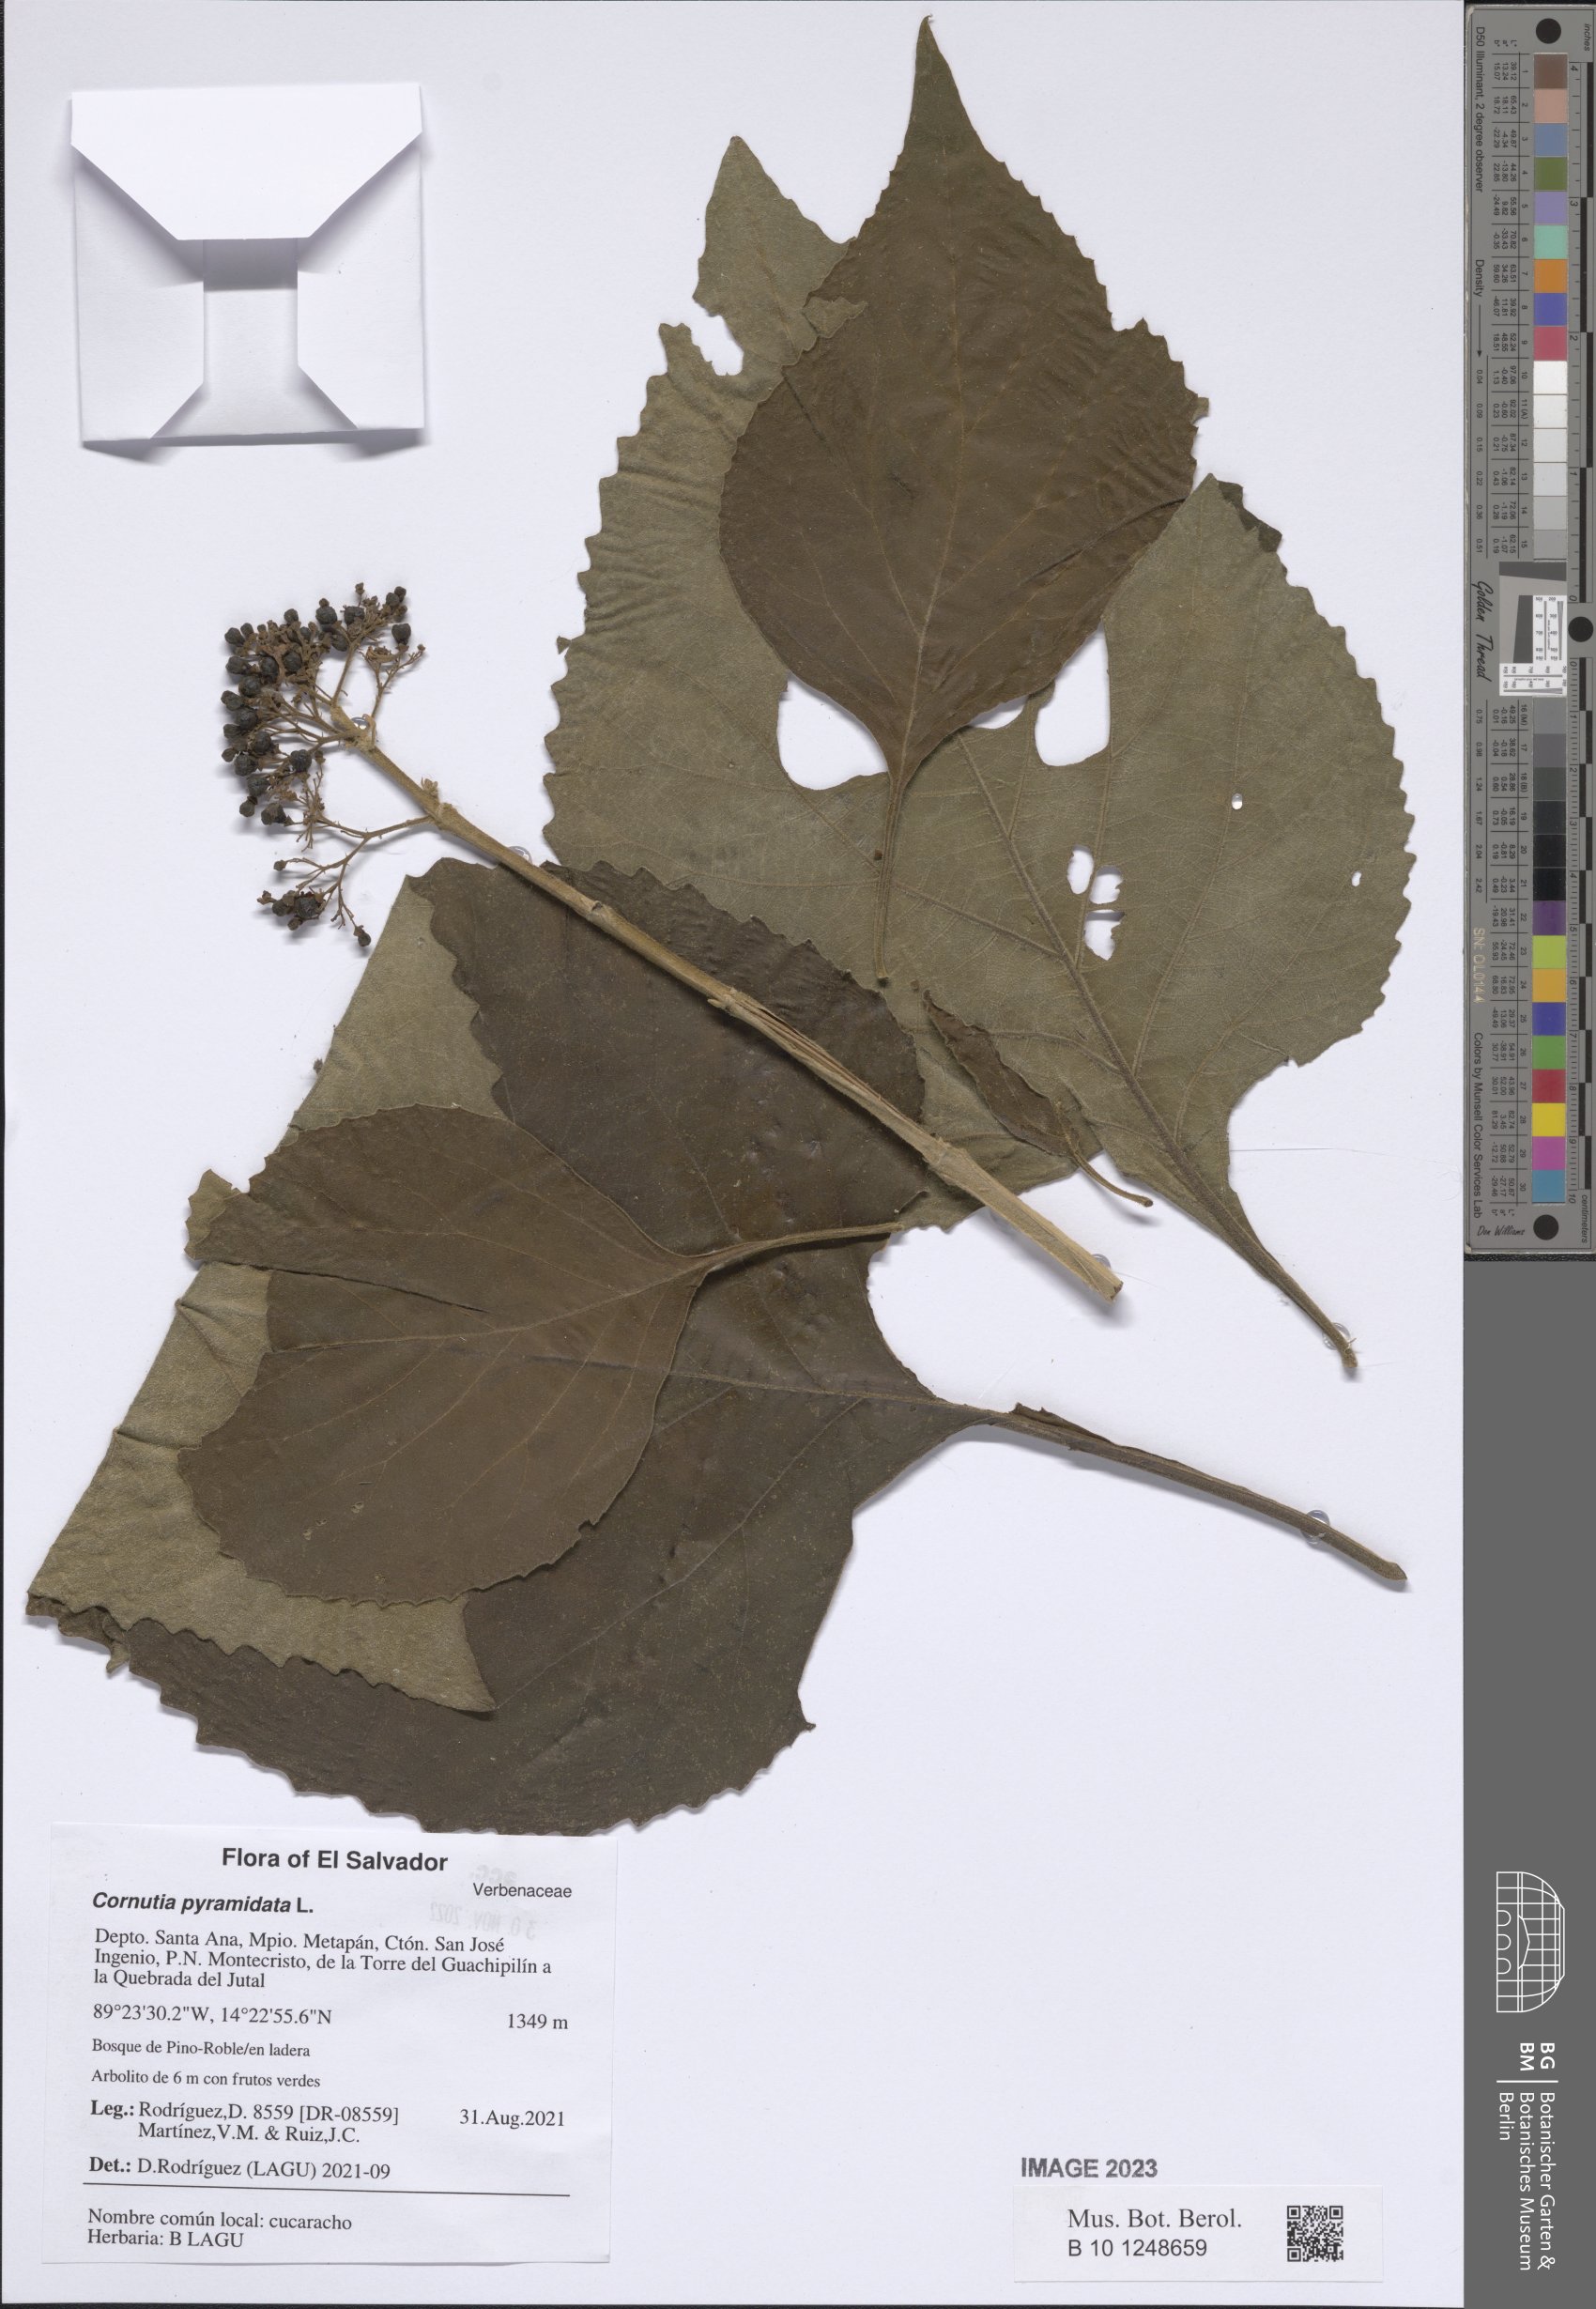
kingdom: Plantae
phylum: Tracheophyta
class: Magnoliopsida
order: Lamiales
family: Lamiaceae
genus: Cornutia
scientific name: Cornutia pyramidata
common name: Azulejo
